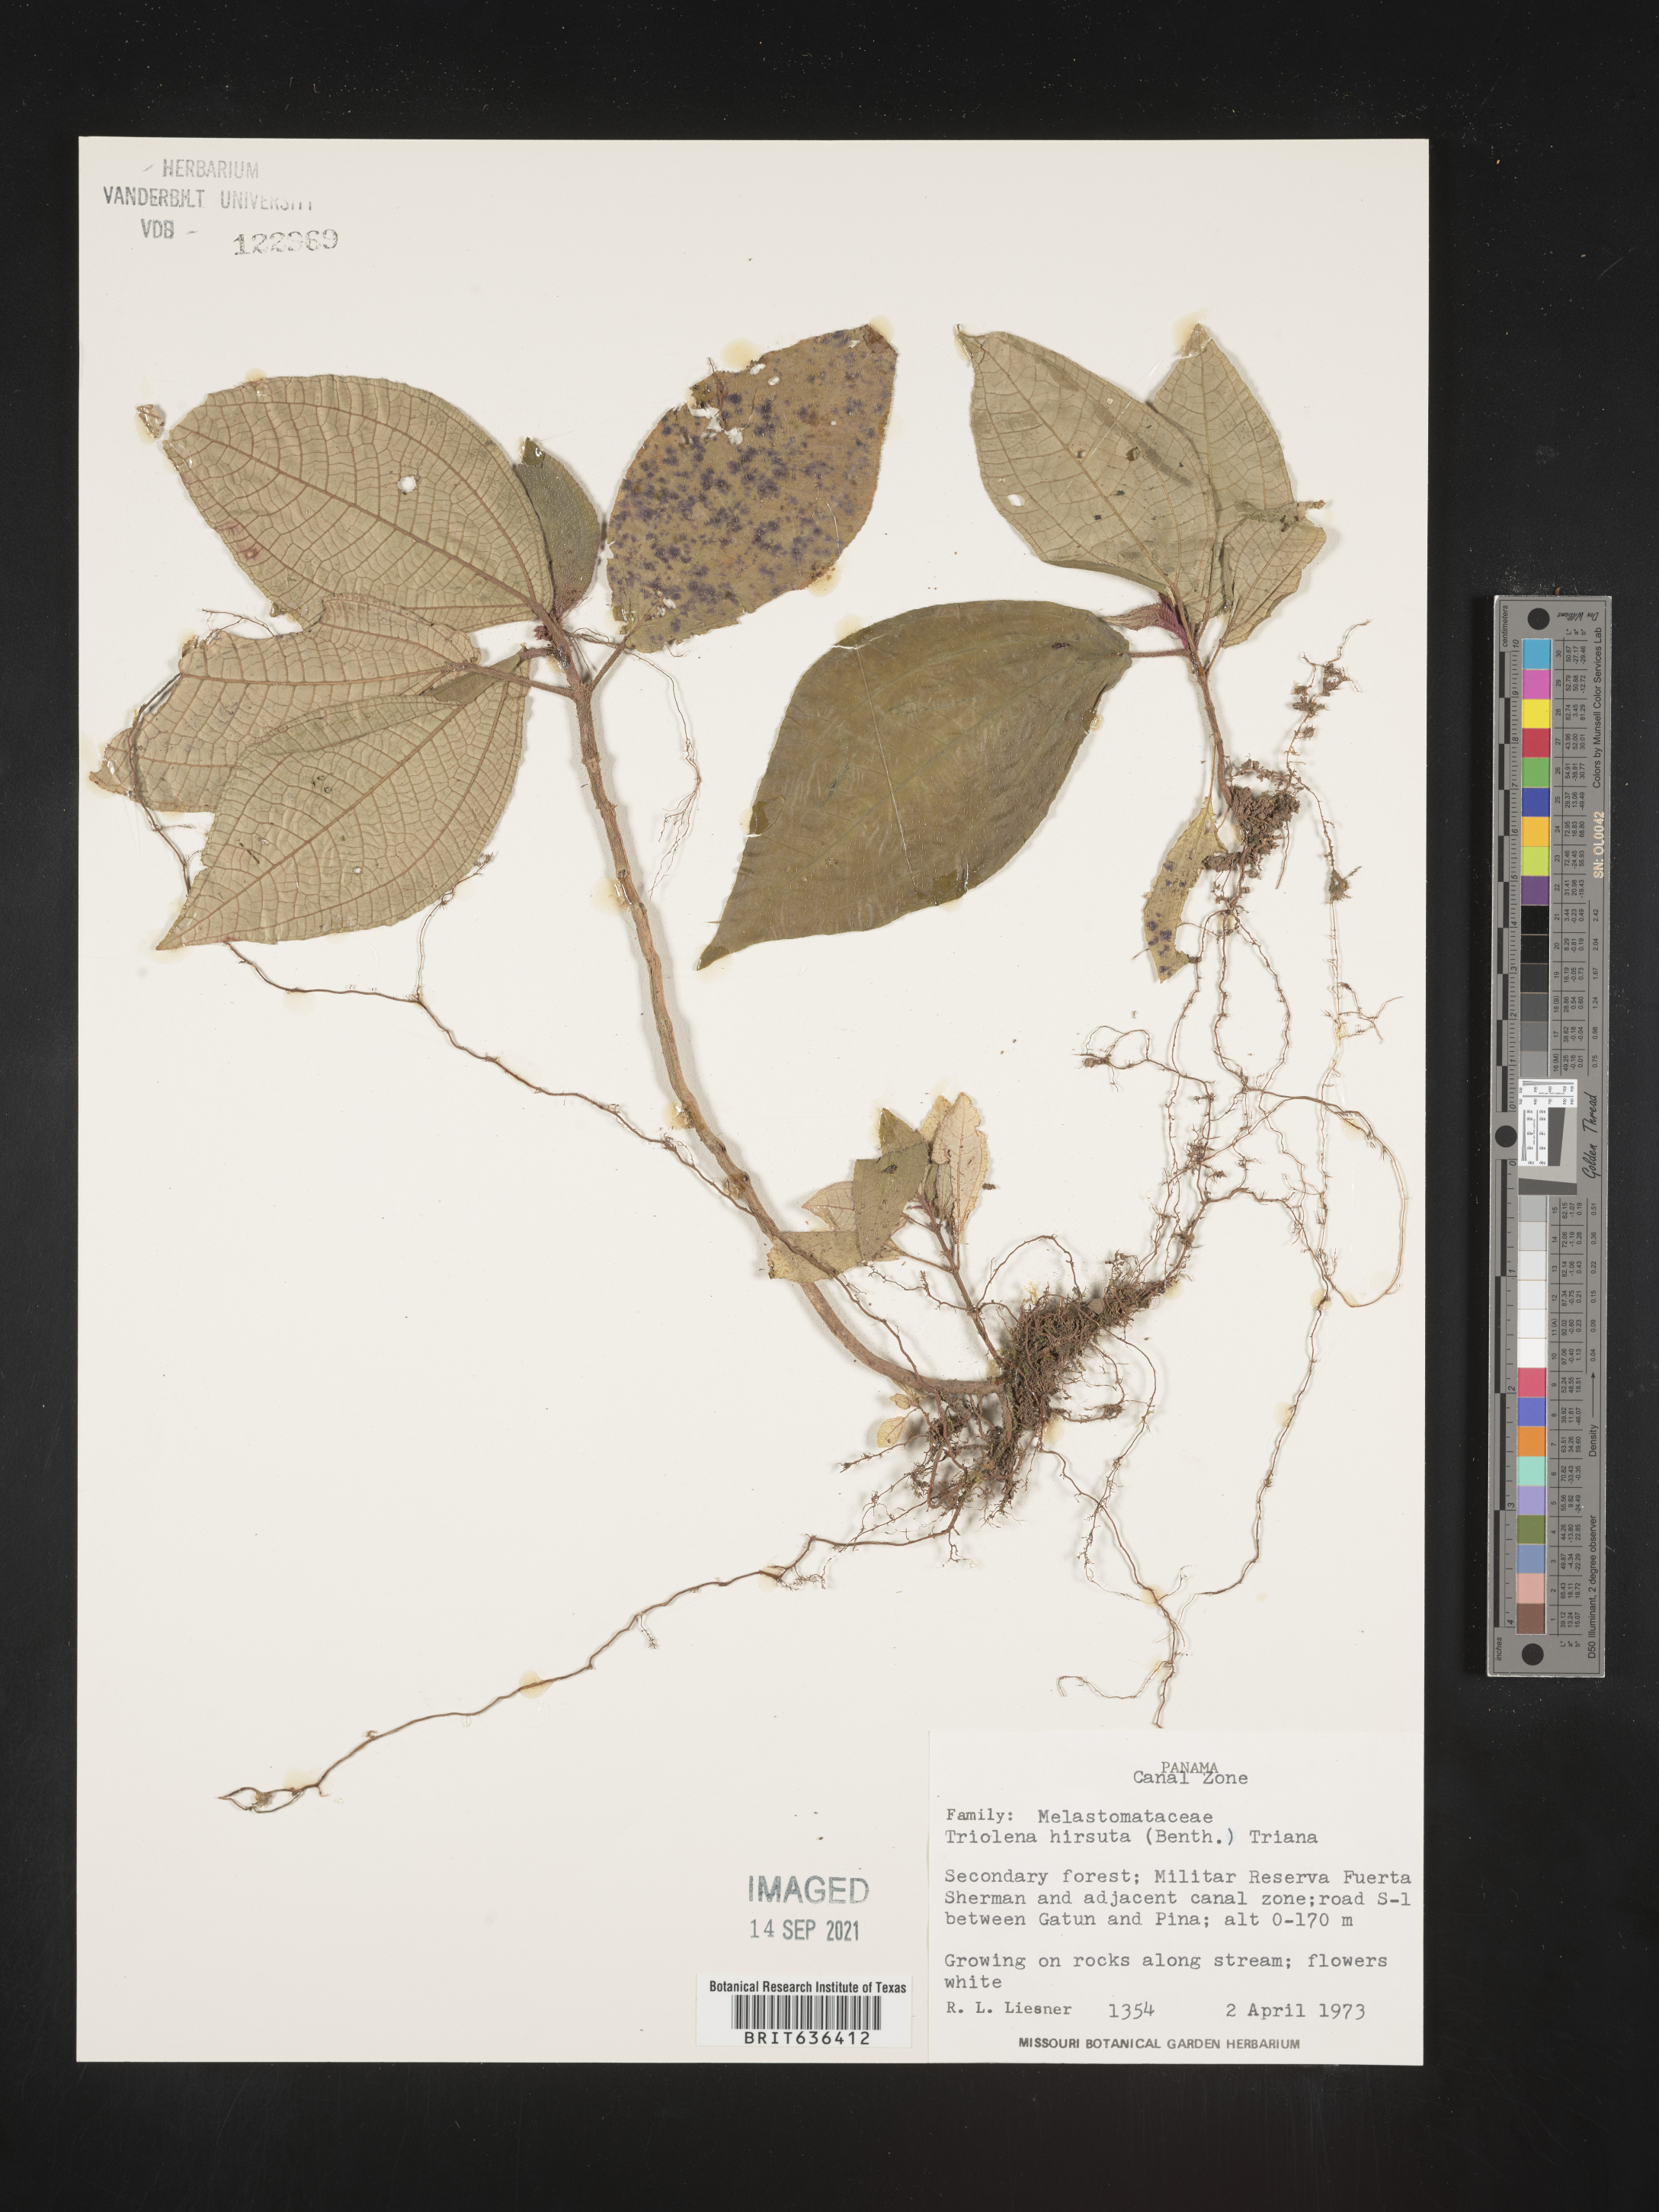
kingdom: Plantae
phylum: Tracheophyta
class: Magnoliopsida
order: Myrtales
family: Melastomataceae
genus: Triolena
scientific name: Triolena
